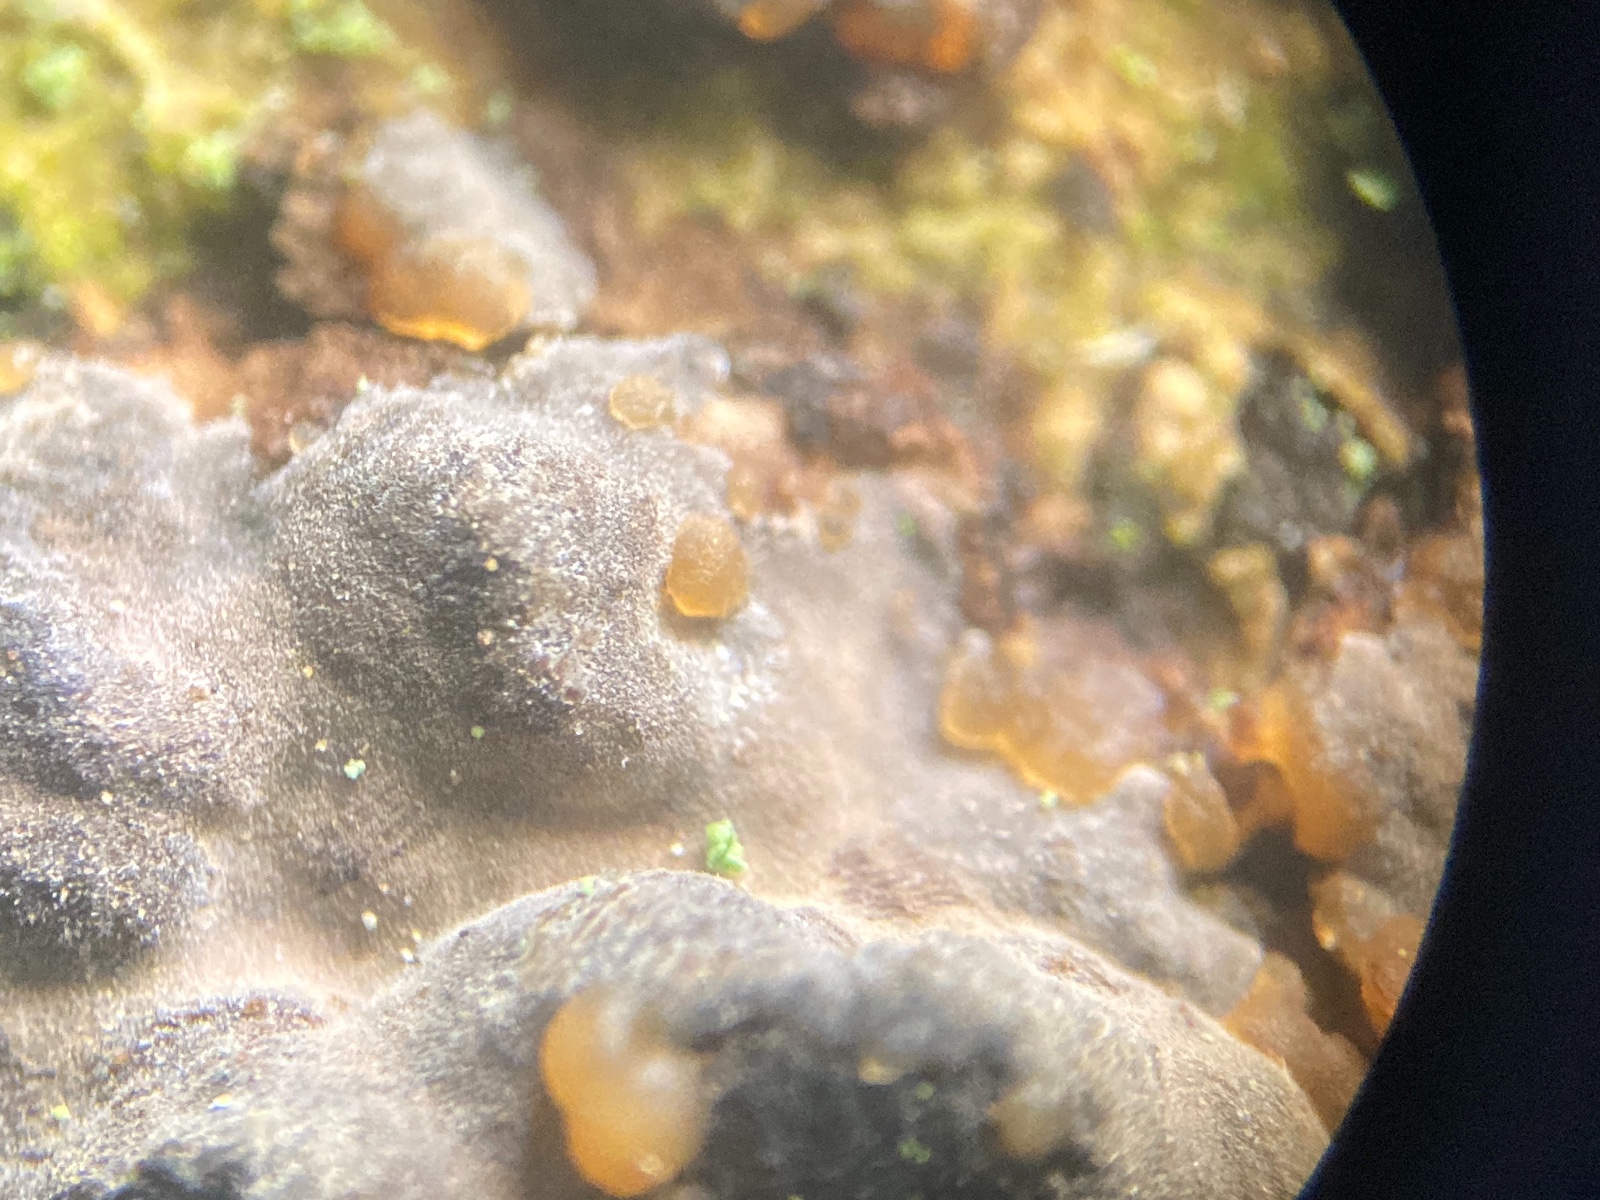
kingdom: Fungi
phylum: Basidiomycota
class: Tremellomycetes
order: Tremellales
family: Tremellaceae
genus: Tremella
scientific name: Tremella versicolor
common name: voksskind-bævresvamp
